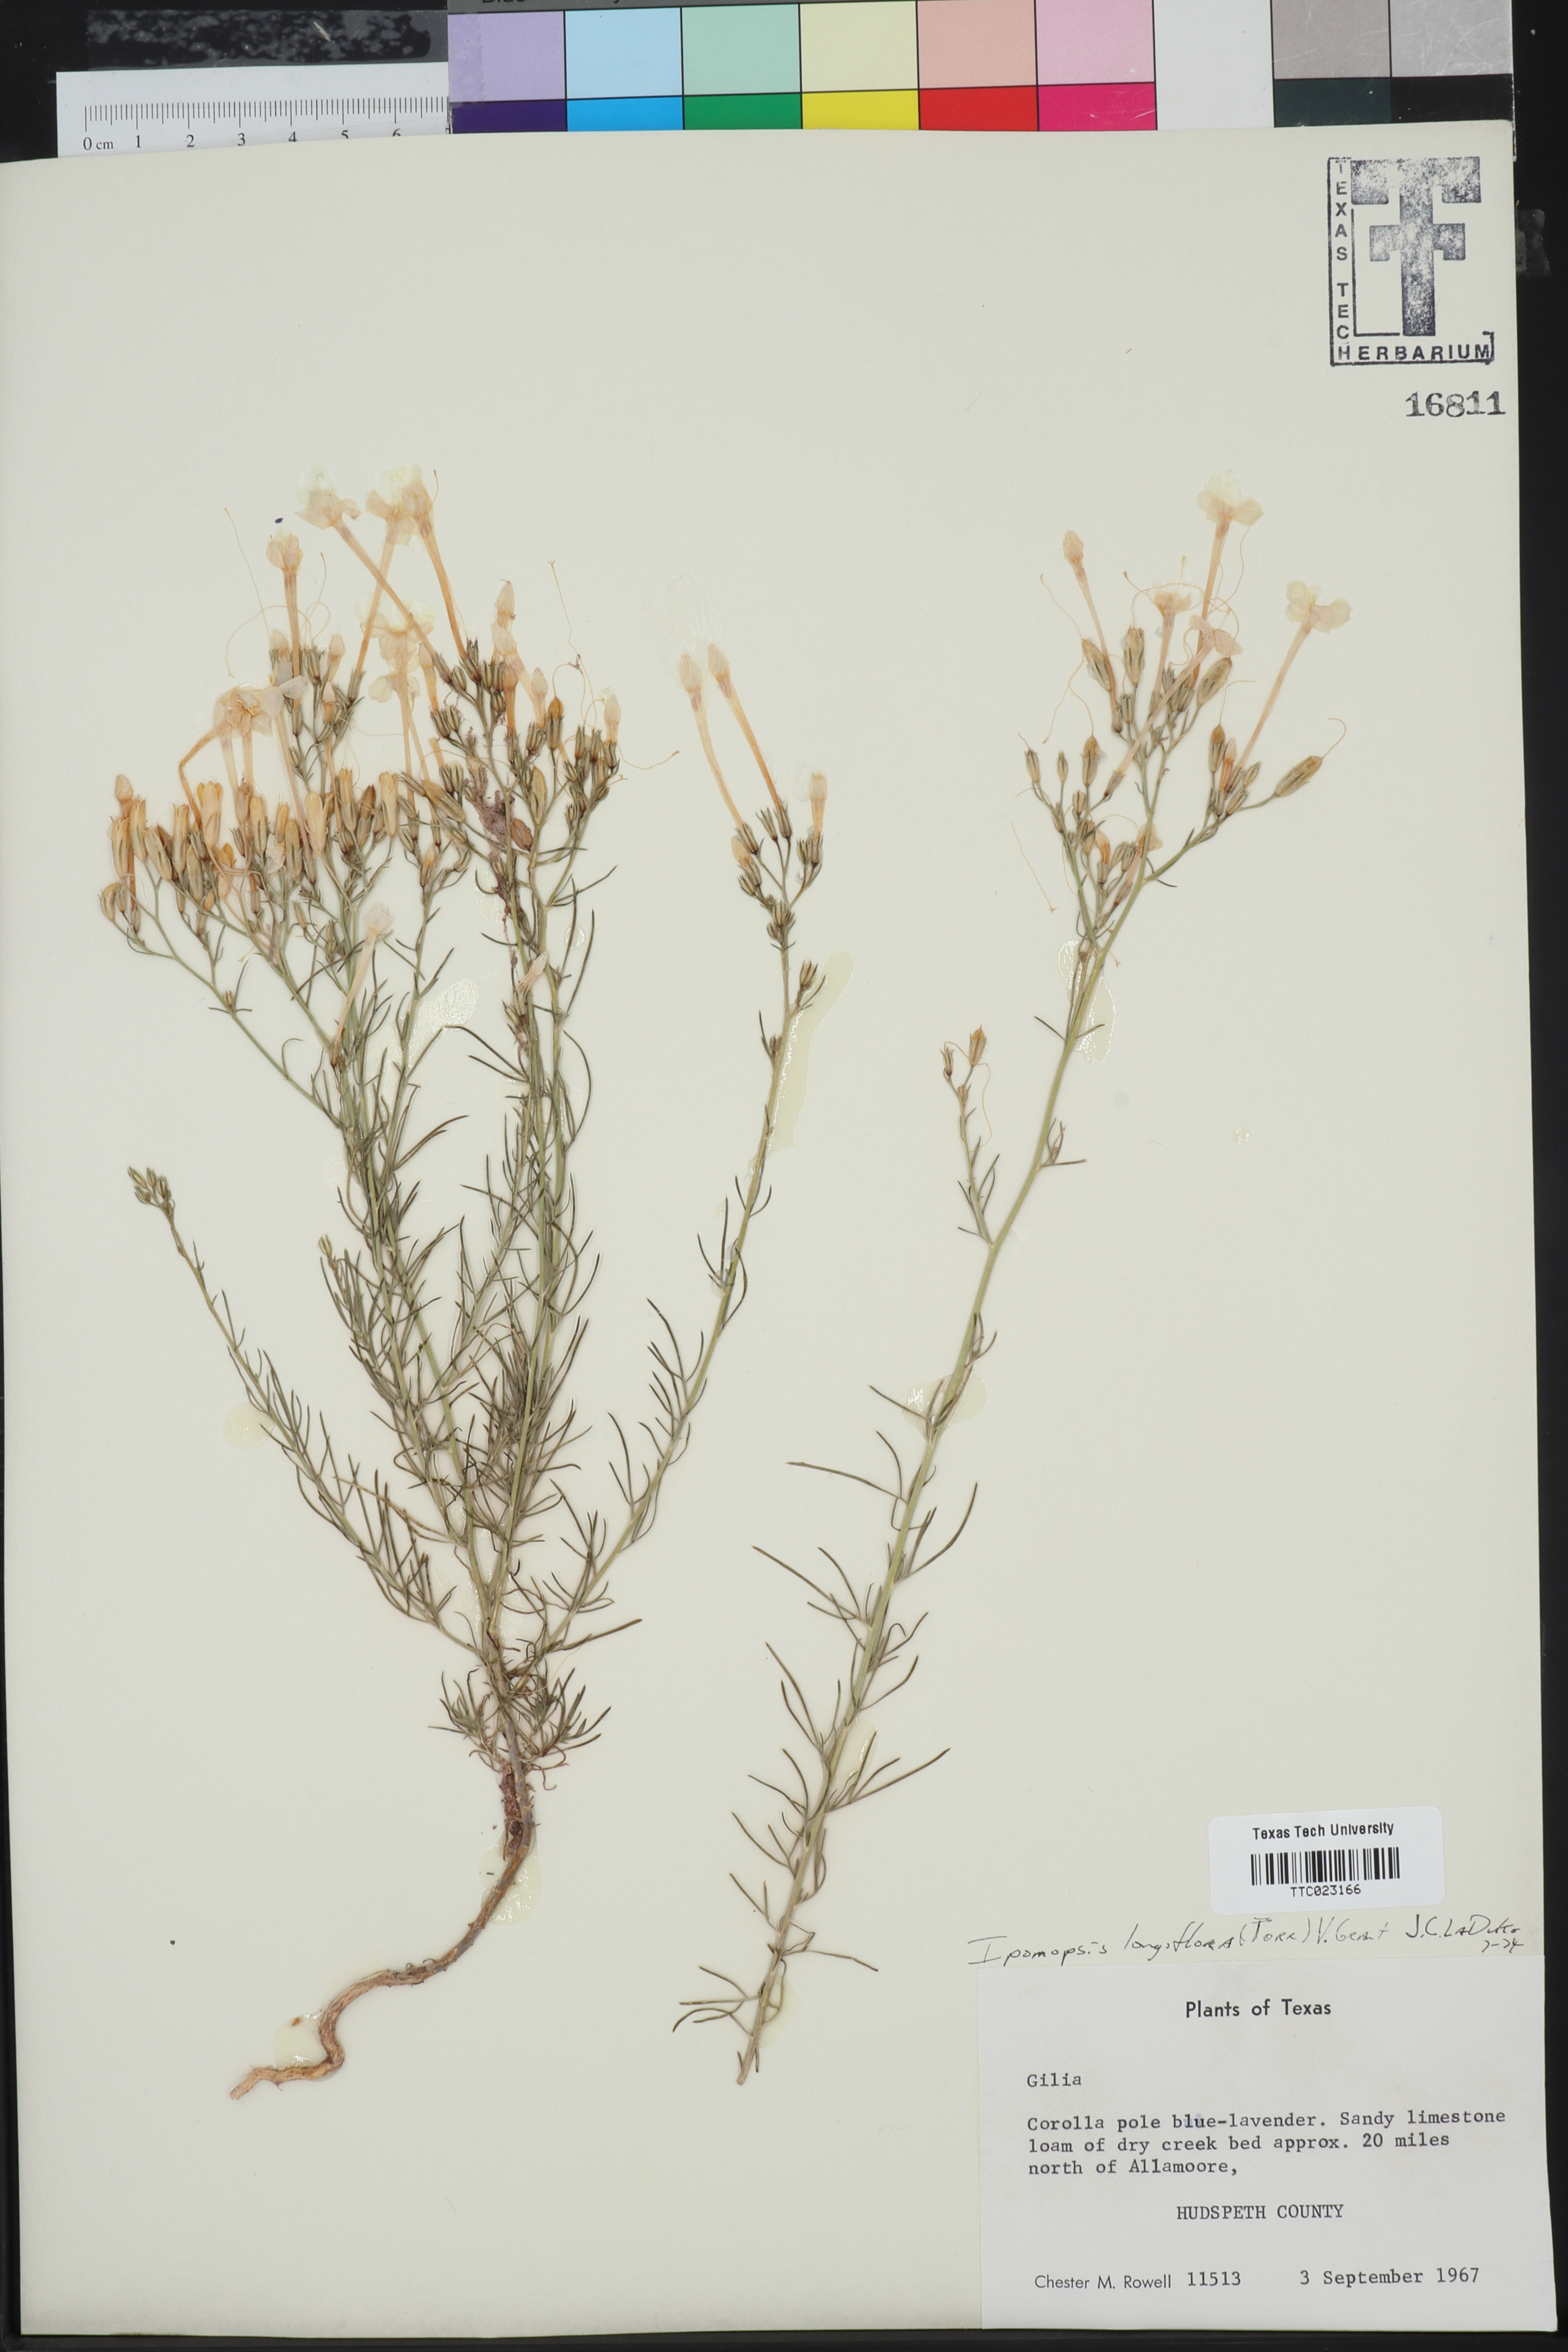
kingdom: Plantae
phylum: Tracheophyta
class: Magnoliopsida
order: Ericales
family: Polemoniaceae
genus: Ipomopsis
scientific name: Ipomopsis longiflora
